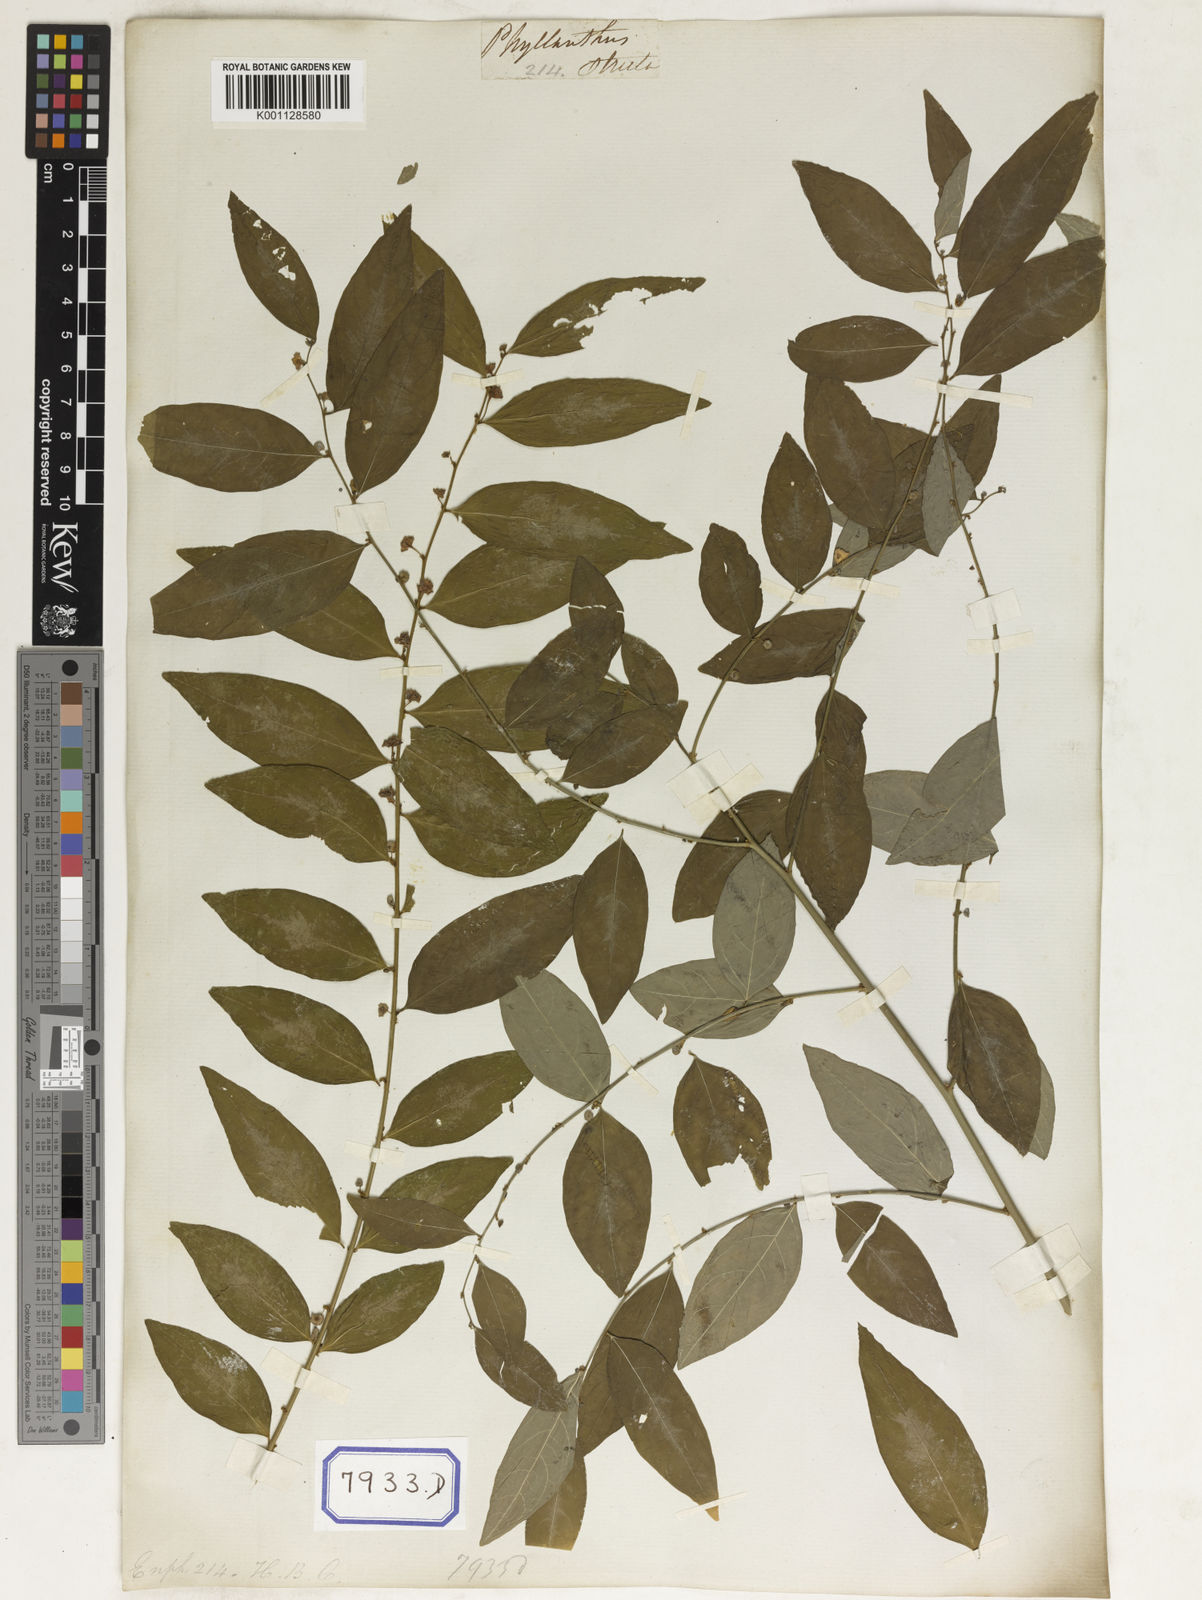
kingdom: Plantae
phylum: Tracheophyta
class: Magnoliopsida
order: Malpighiales
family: Euphorbiaceae
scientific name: Euphorbiaceae
